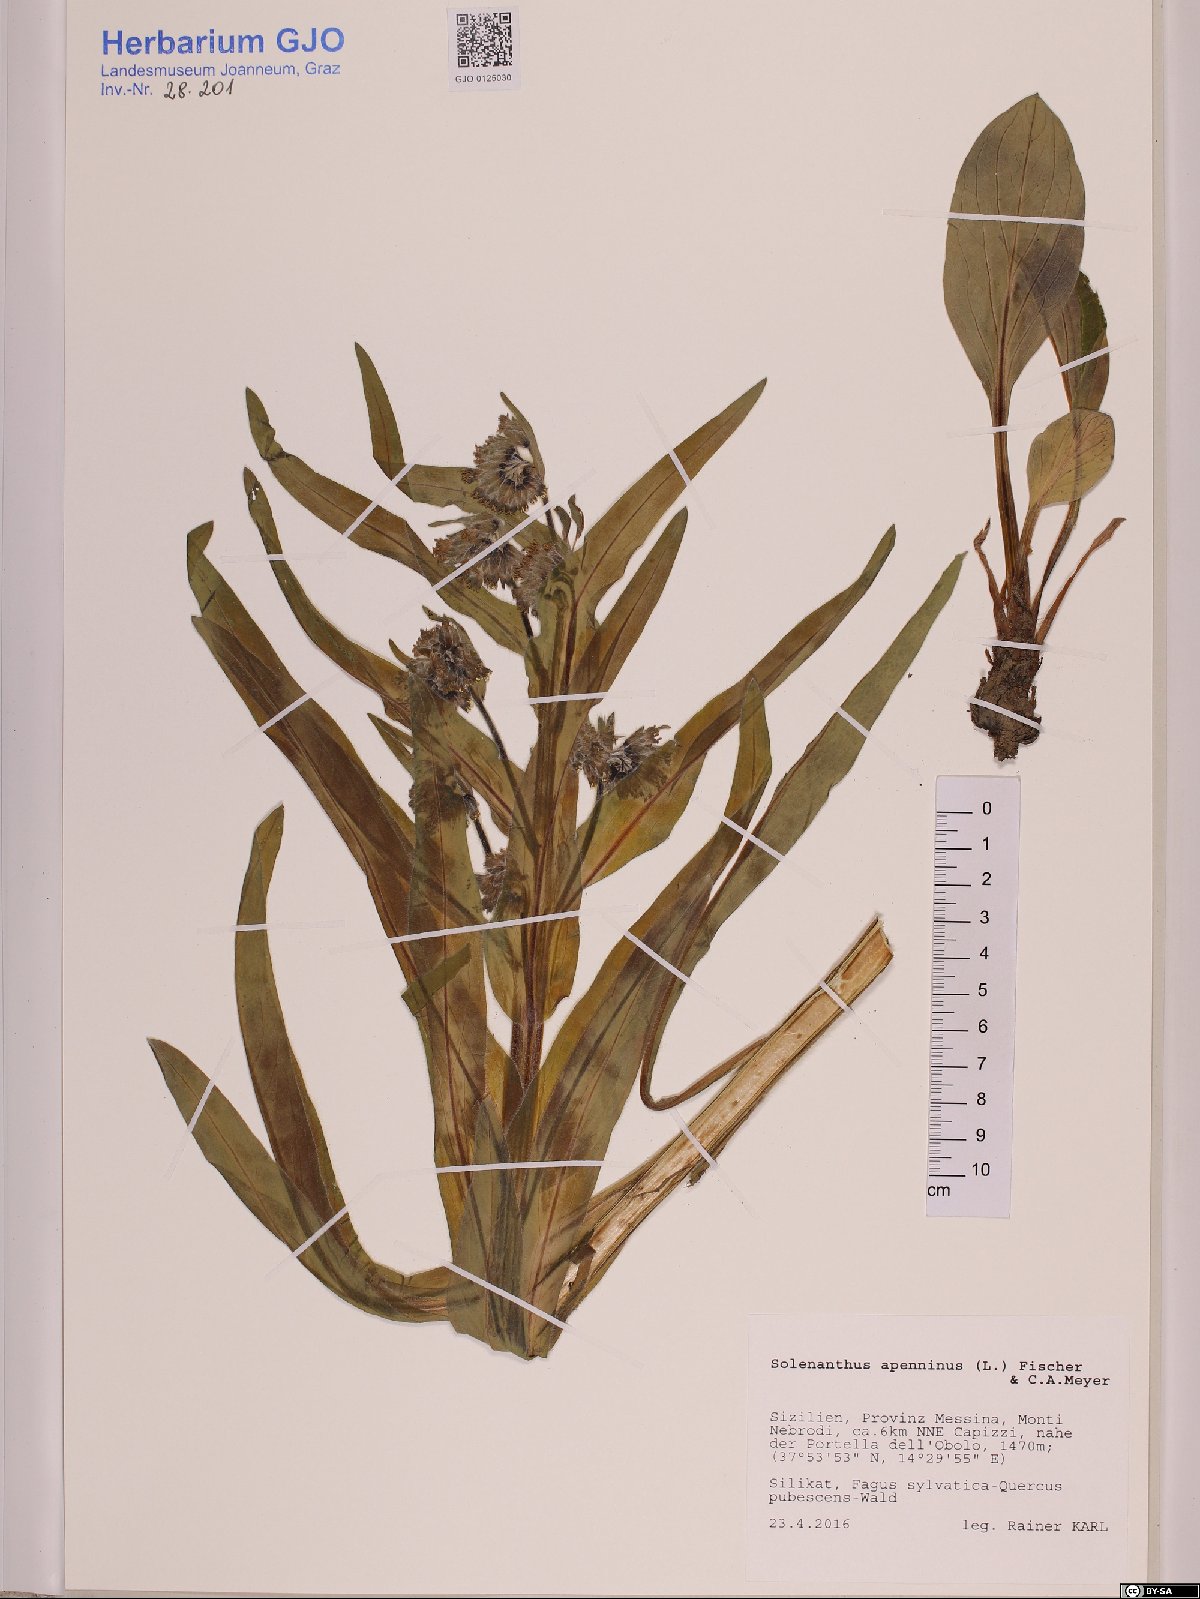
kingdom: Plantae
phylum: Tracheophyta
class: Magnoliopsida
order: Boraginales
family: Boraginaceae
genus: Solenanthus
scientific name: Solenanthus apenninus
